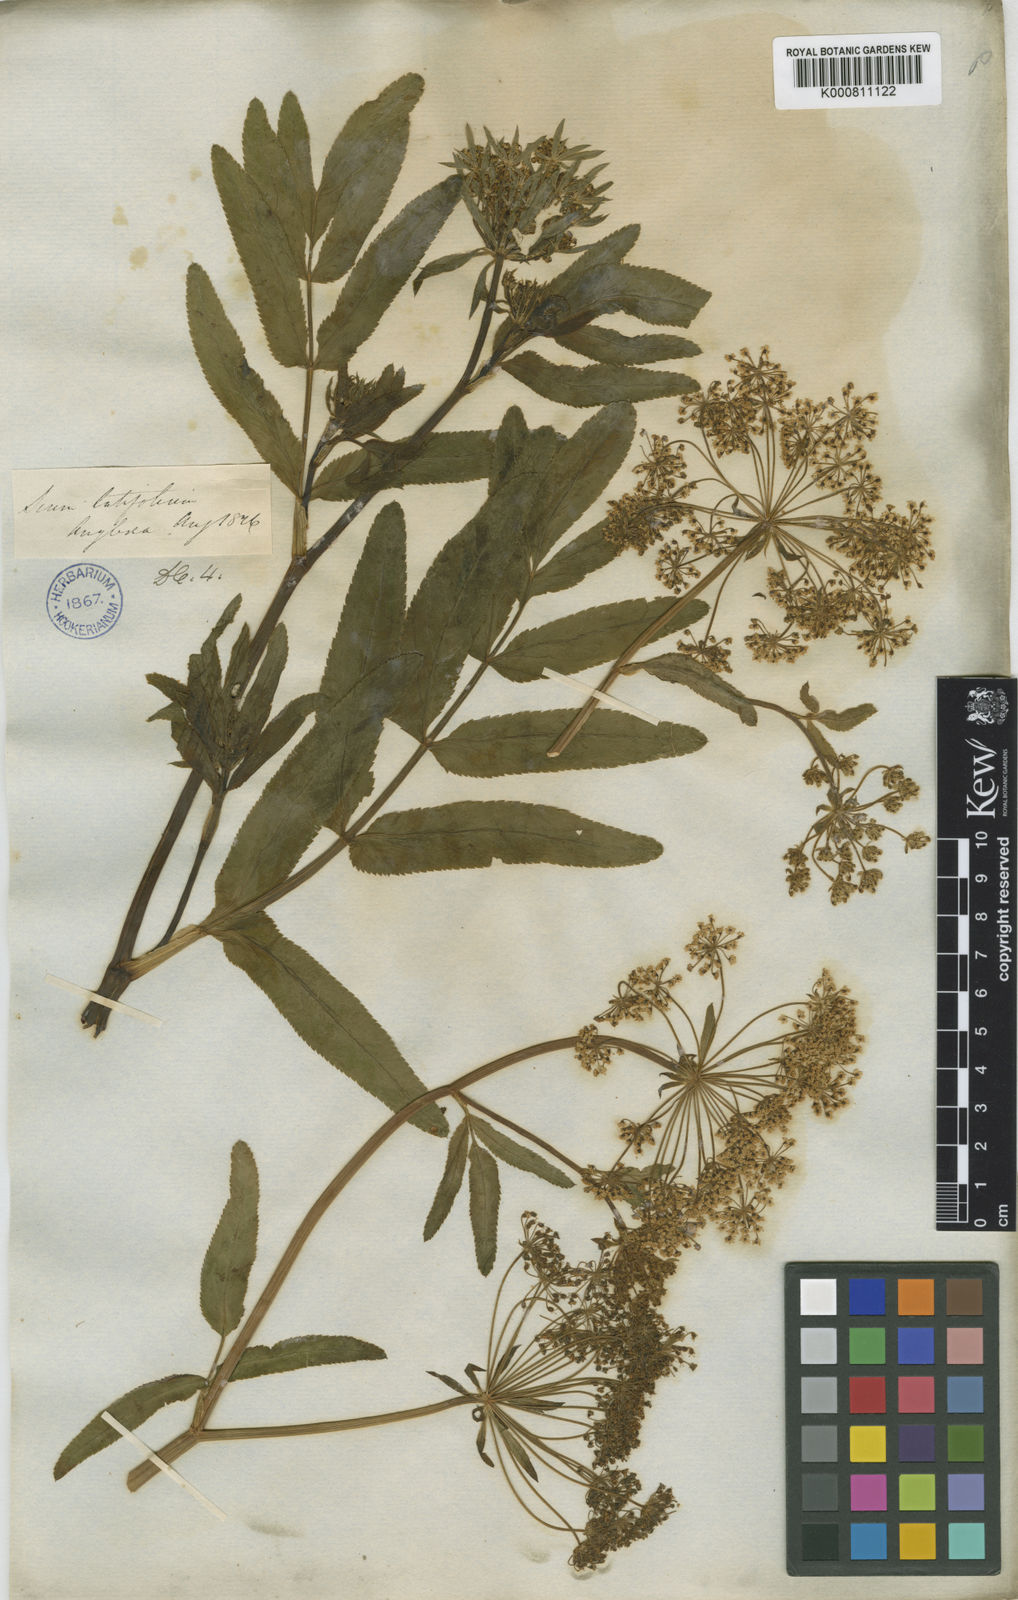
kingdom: Plantae
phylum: Tracheophyta
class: Magnoliopsida
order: Apiales
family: Apiaceae
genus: Sium
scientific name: Sium latifolium
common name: Greater water-parsnip
